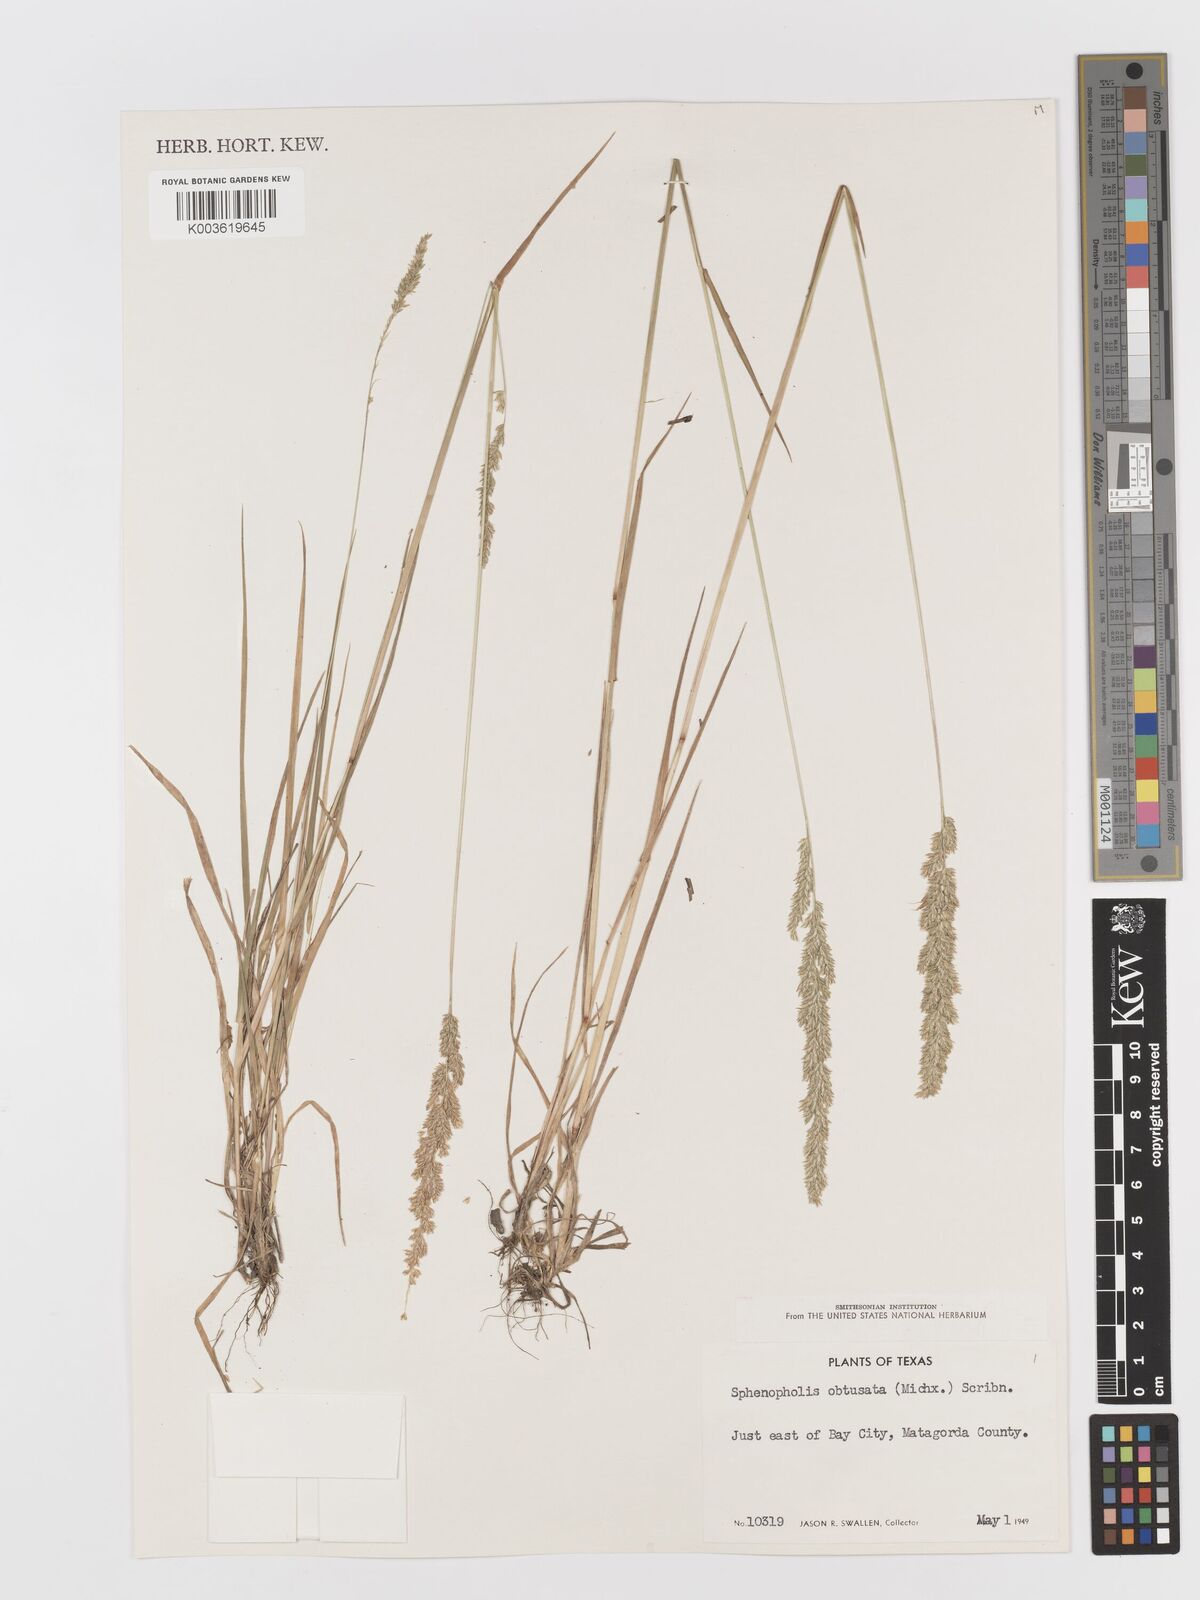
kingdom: Plantae
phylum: Tracheophyta
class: Liliopsida
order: Poales
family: Poaceae
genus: Sphenopholis
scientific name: Sphenopholis obtusata
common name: Prairie grass
